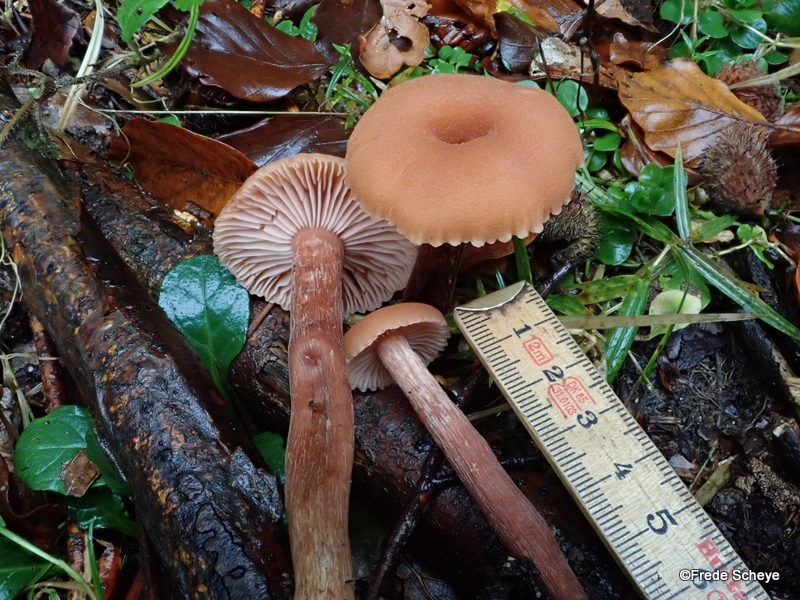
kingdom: Fungi
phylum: Basidiomycota
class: Agaricomycetes
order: Agaricales
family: Hydnangiaceae
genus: Laccaria
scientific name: Laccaria laccata
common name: rød ametysthat
